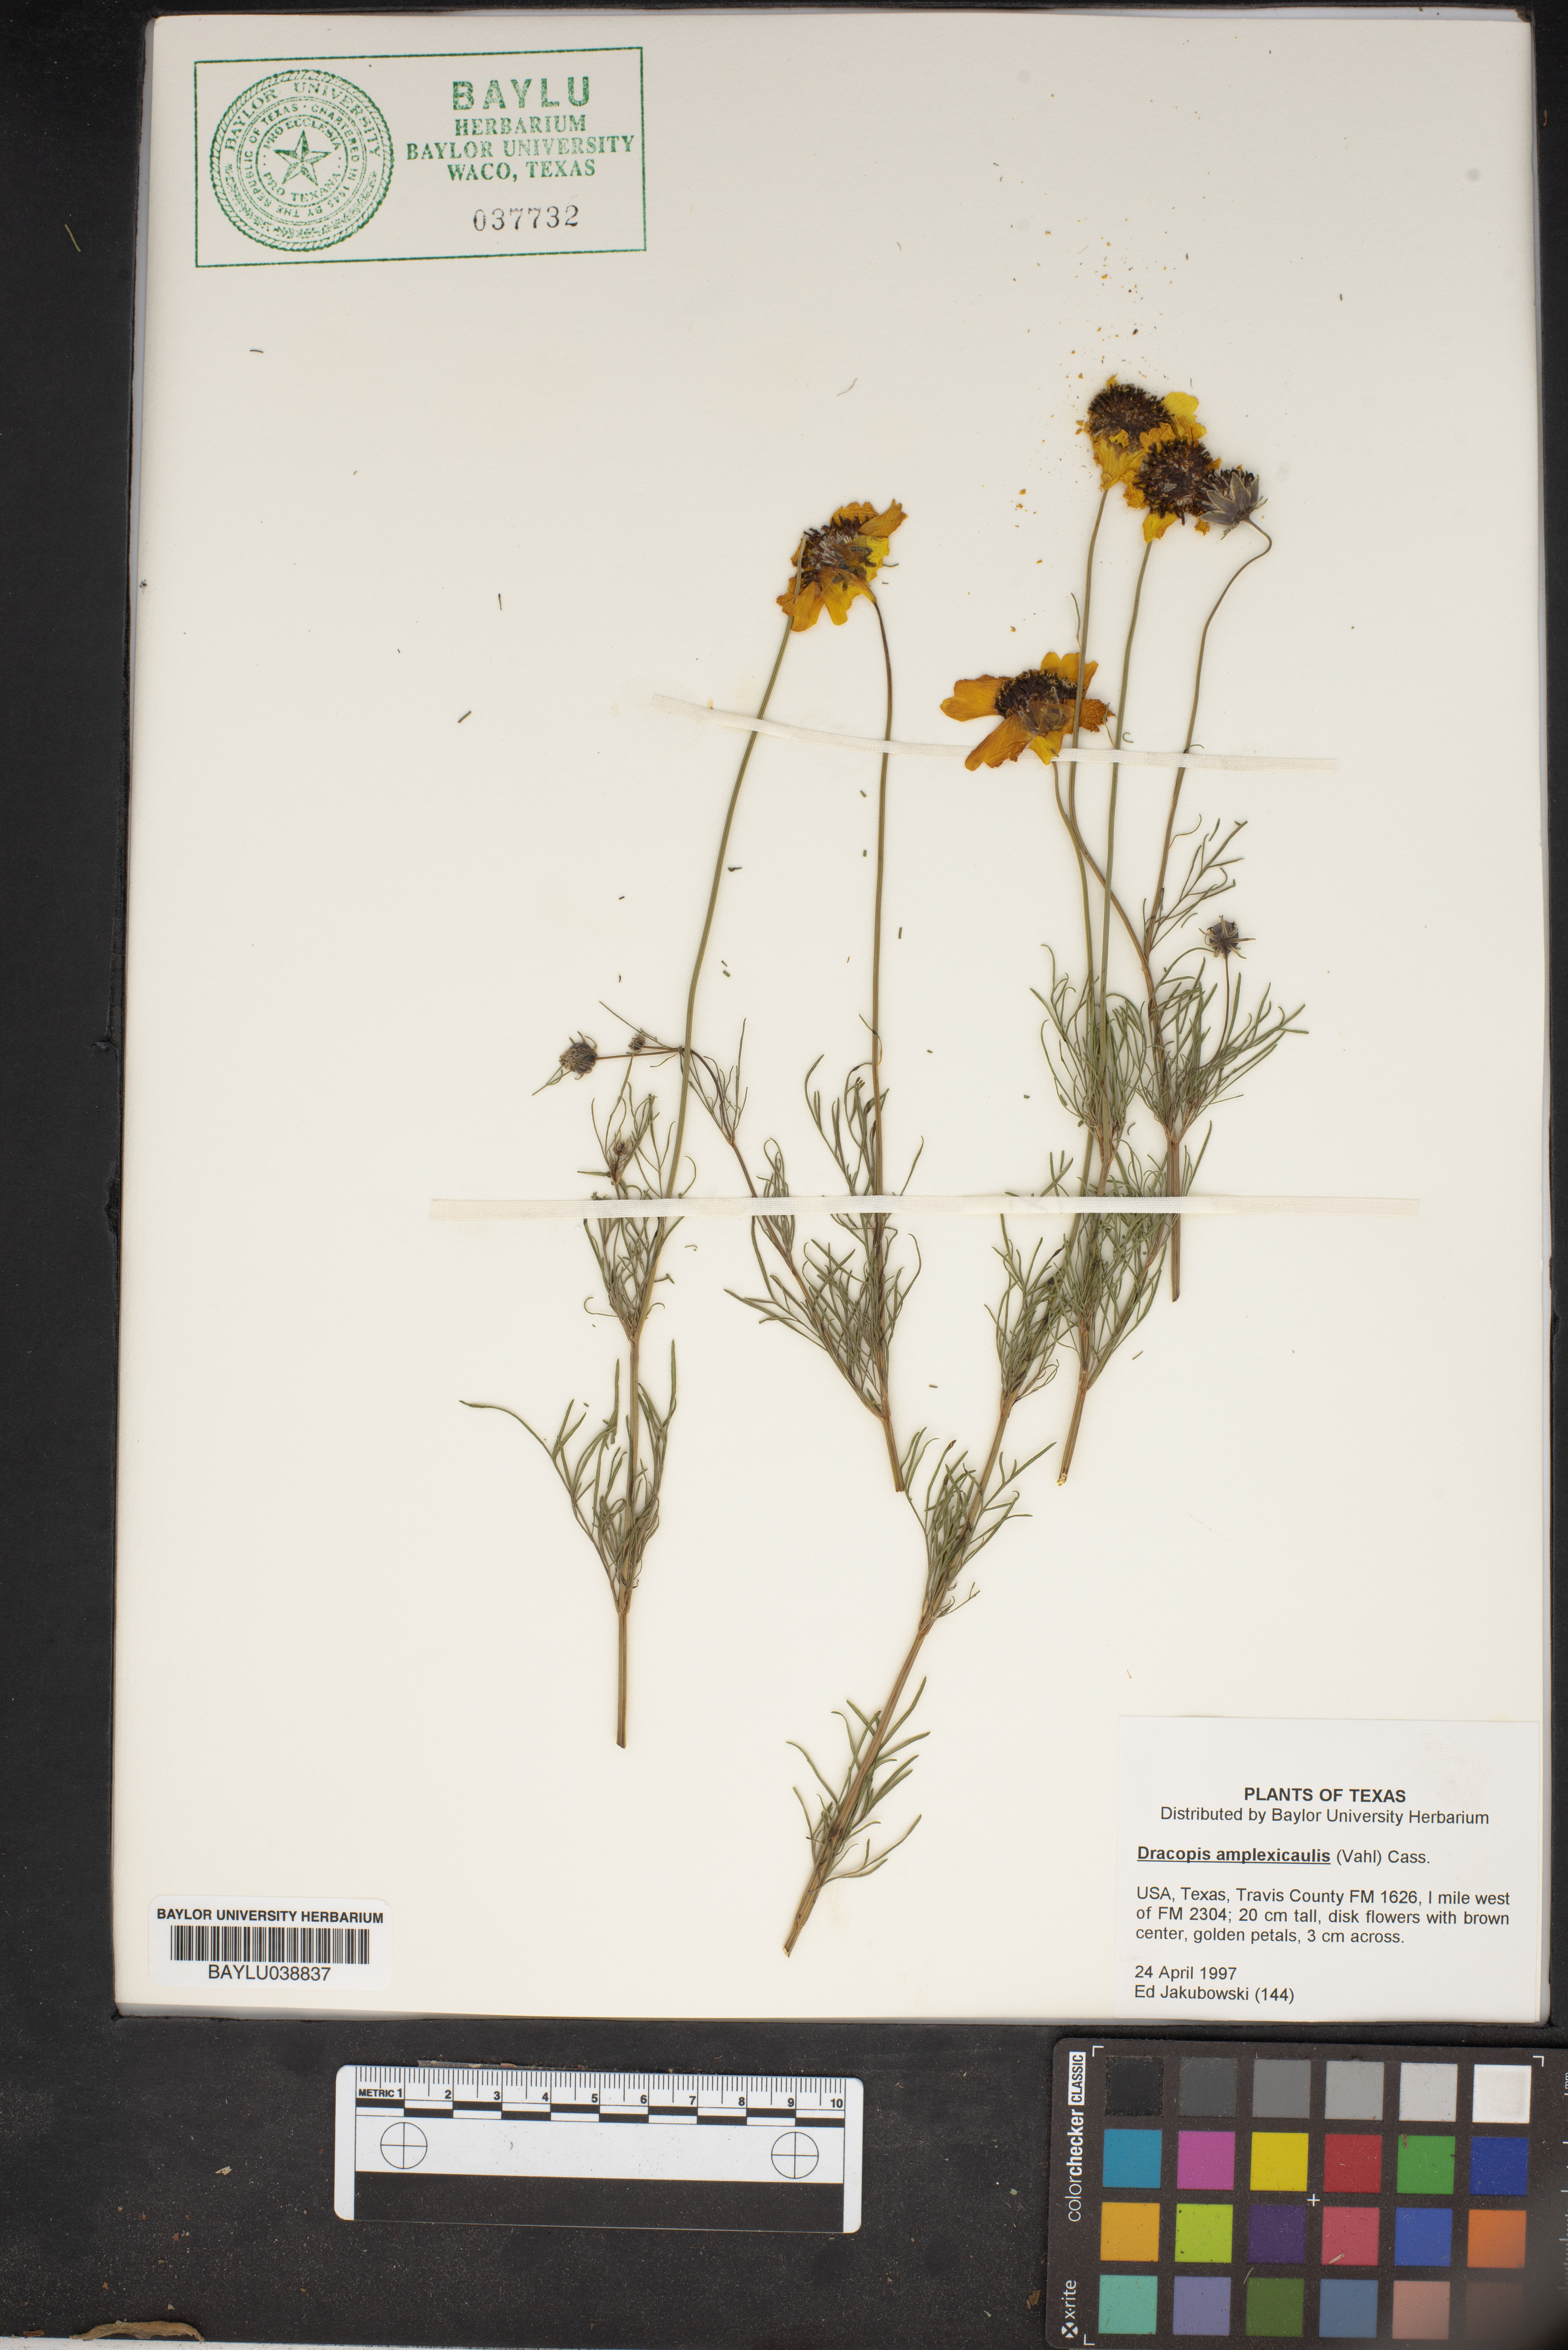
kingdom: Plantae
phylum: Tracheophyta
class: Magnoliopsida
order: Asterales
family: Asteraceae
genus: Rudbeckia
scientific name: Rudbeckia amplexicaulis
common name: Clasping-leaf coneflower
